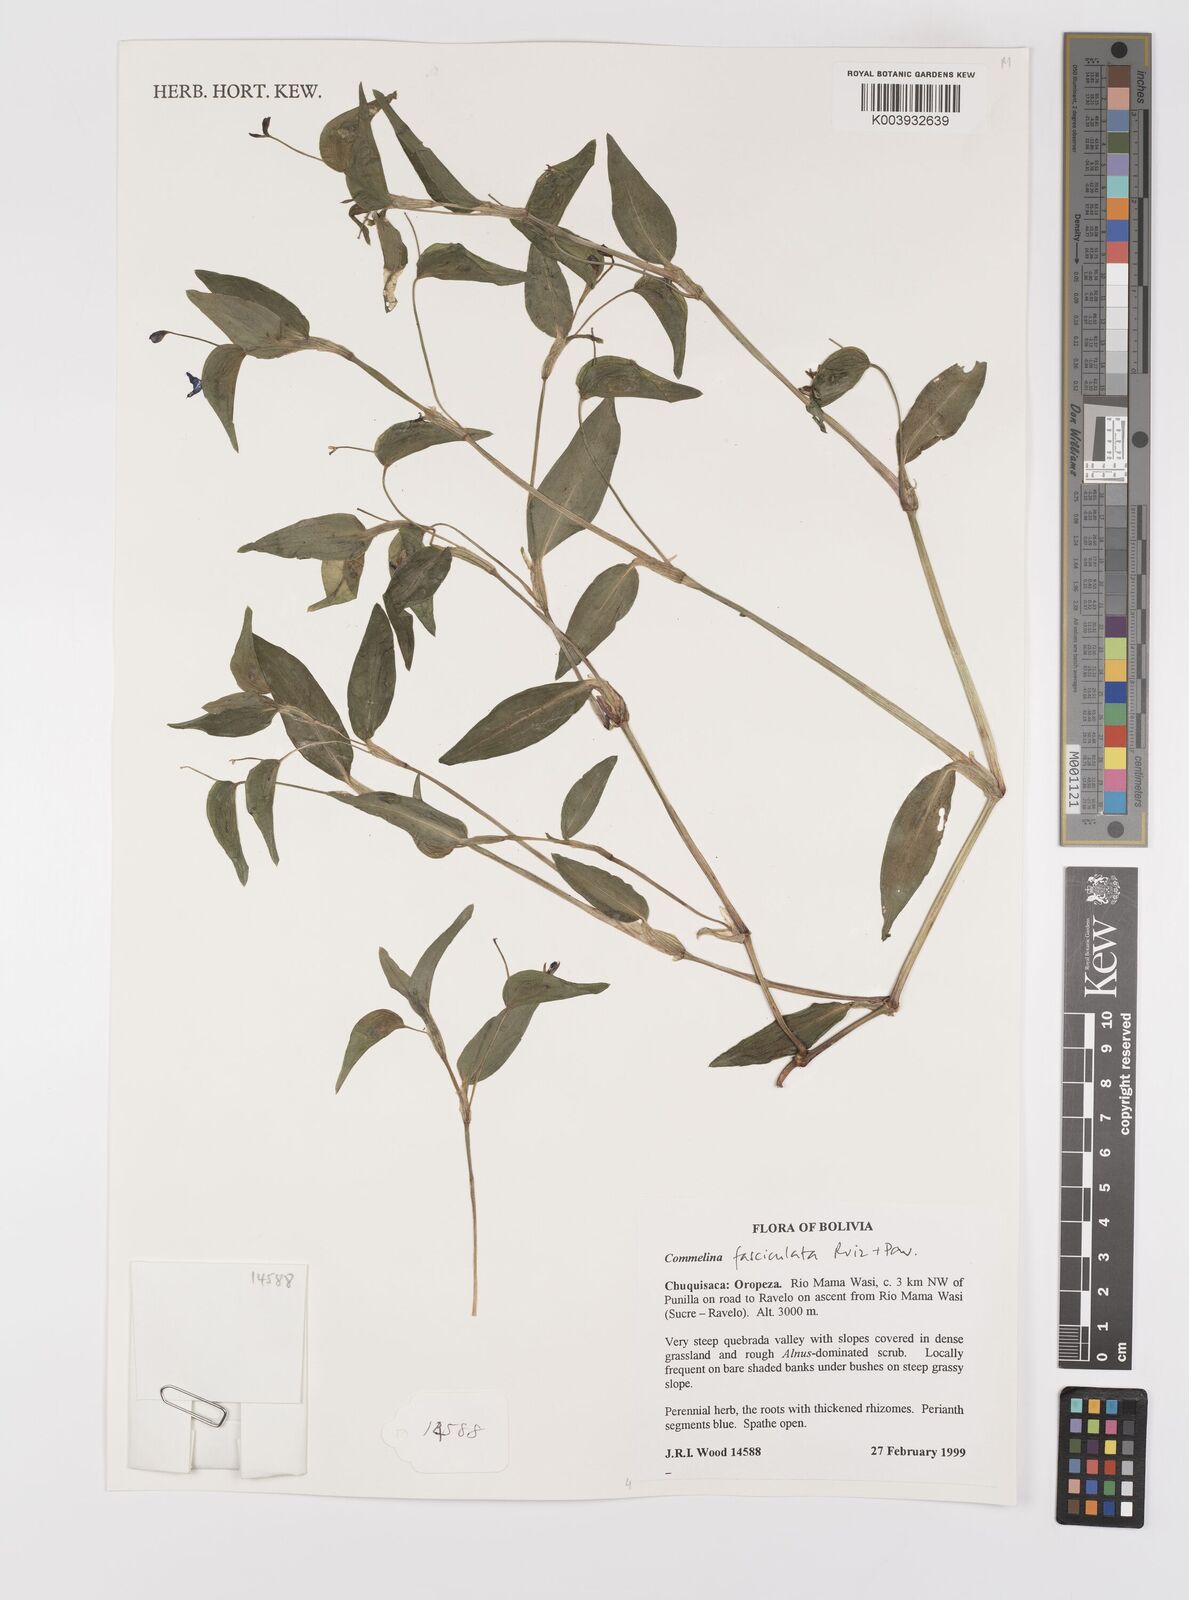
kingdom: Plantae
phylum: Tracheophyta
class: Liliopsida
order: Commelinales
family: Commelinaceae
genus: Commelina
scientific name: Commelina tuberosa
